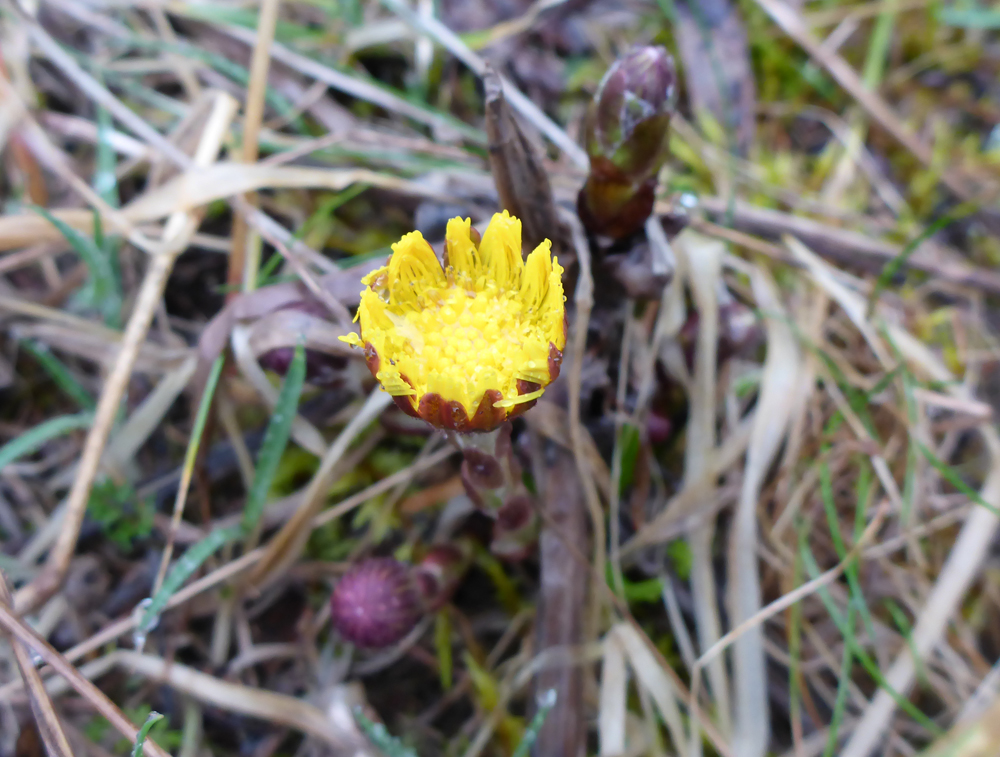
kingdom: Plantae
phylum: Tracheophyta
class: Magnoliopsida
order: Asterales
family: Asteraceae
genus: Tussilago
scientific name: Tussilago farfara
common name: Coltsfoot
